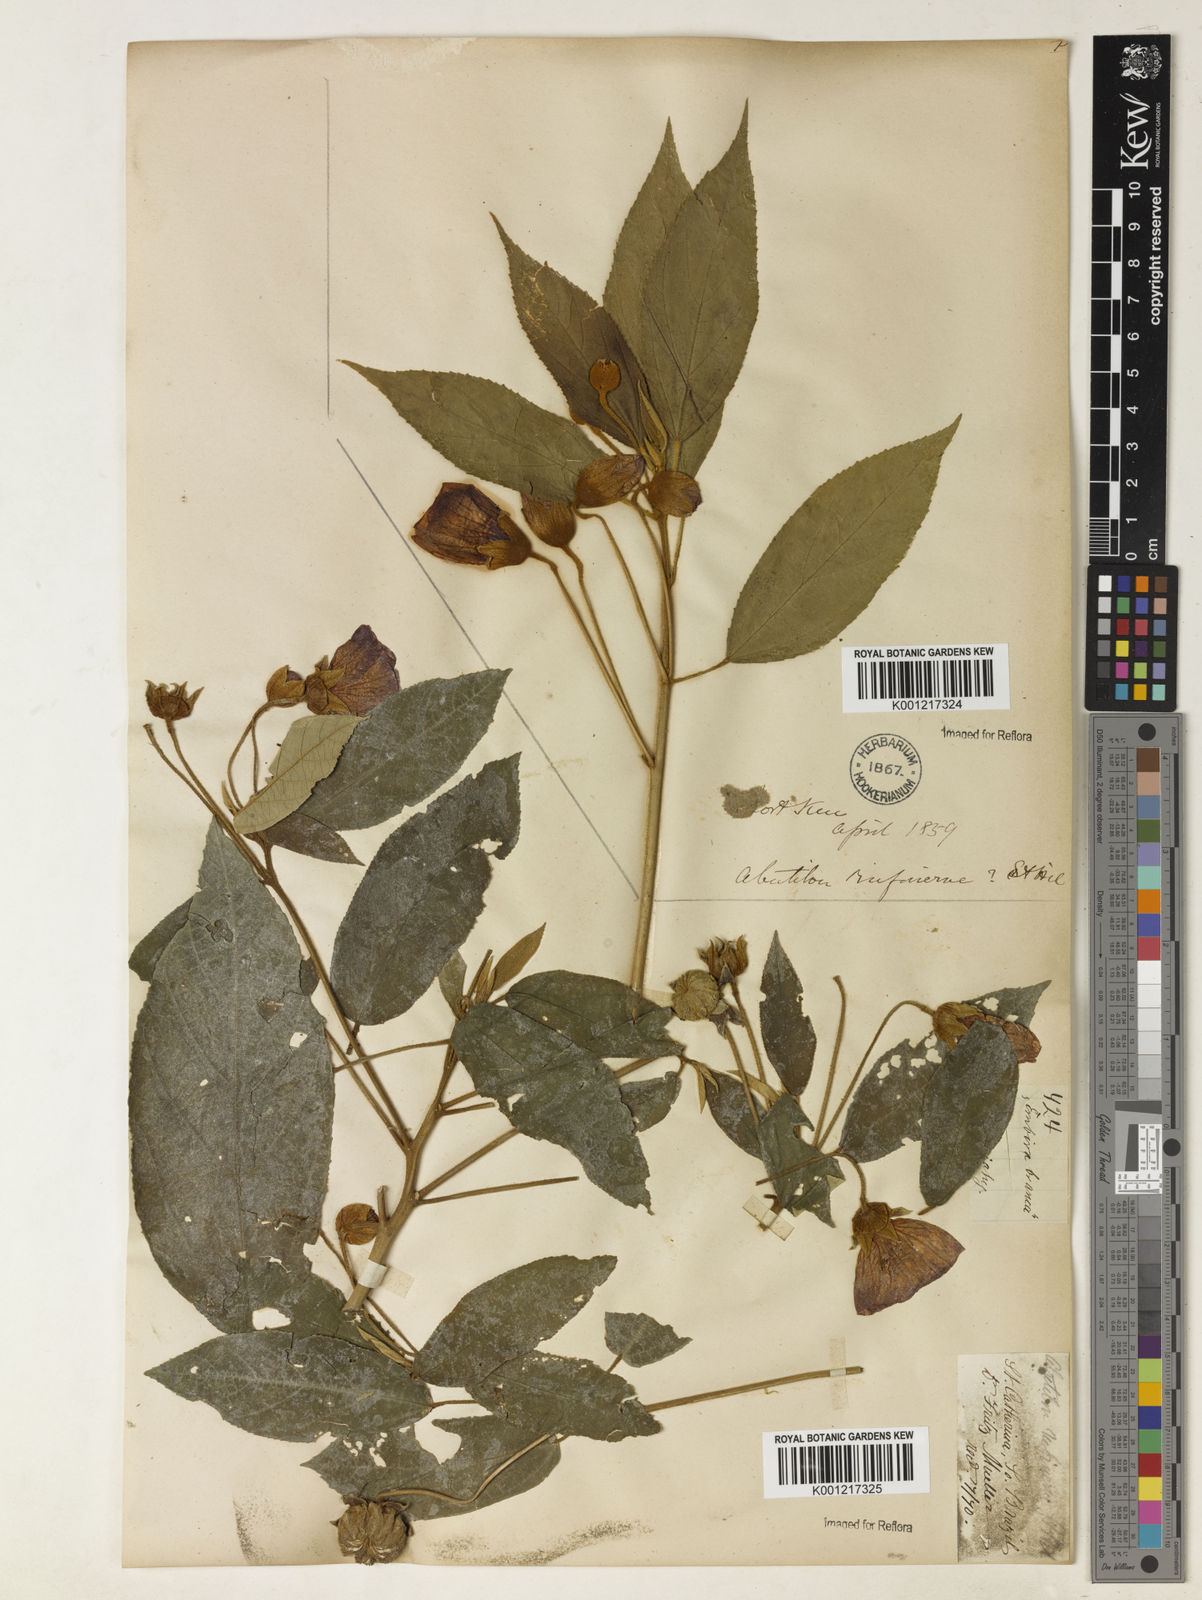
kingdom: Plantae
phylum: Tracheophyta
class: Magnoliopsida
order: Malvales
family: Malvaceae
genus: Callianthe
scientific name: Callianthe rufinerva
